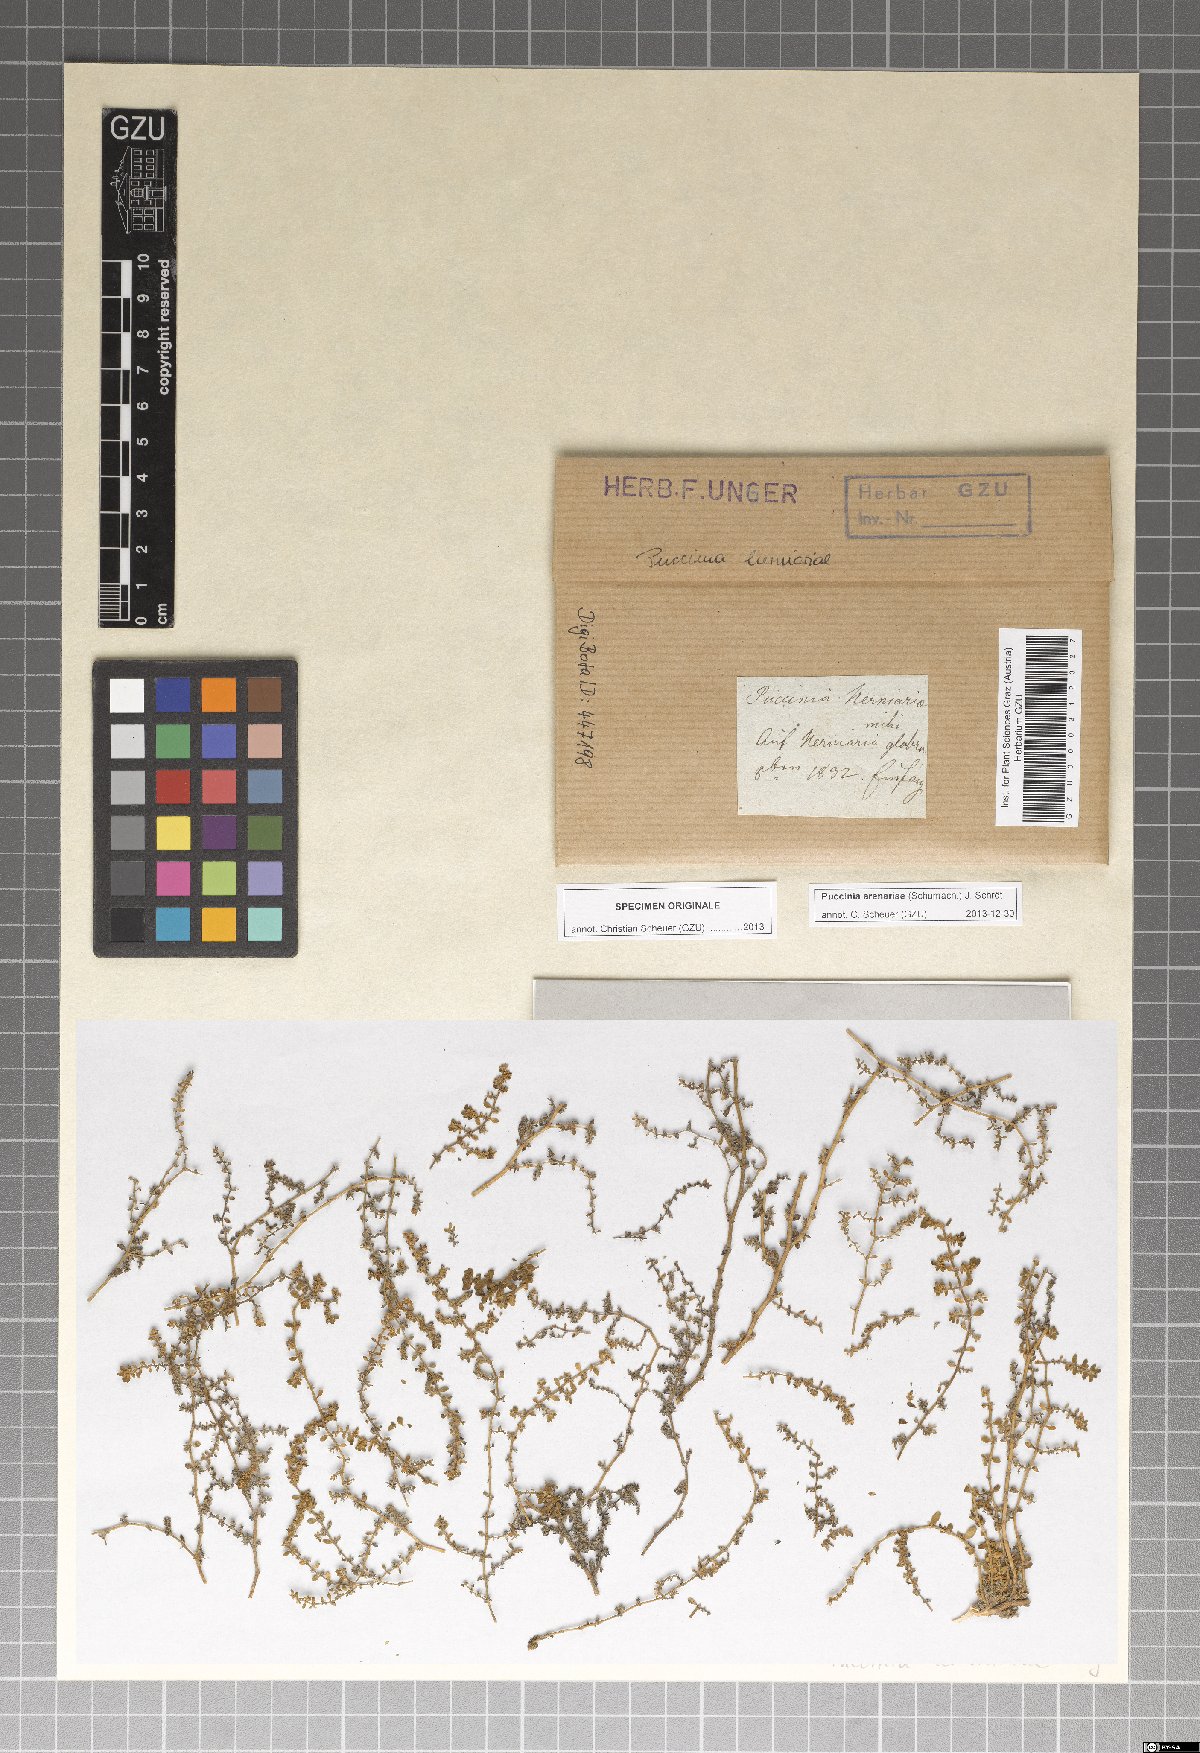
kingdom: Fungi
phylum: Basidiomycota
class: Pucciniomycetes
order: Pucciniales
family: Pucciniaceae
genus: Puccinia
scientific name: Puccinia arenariae
